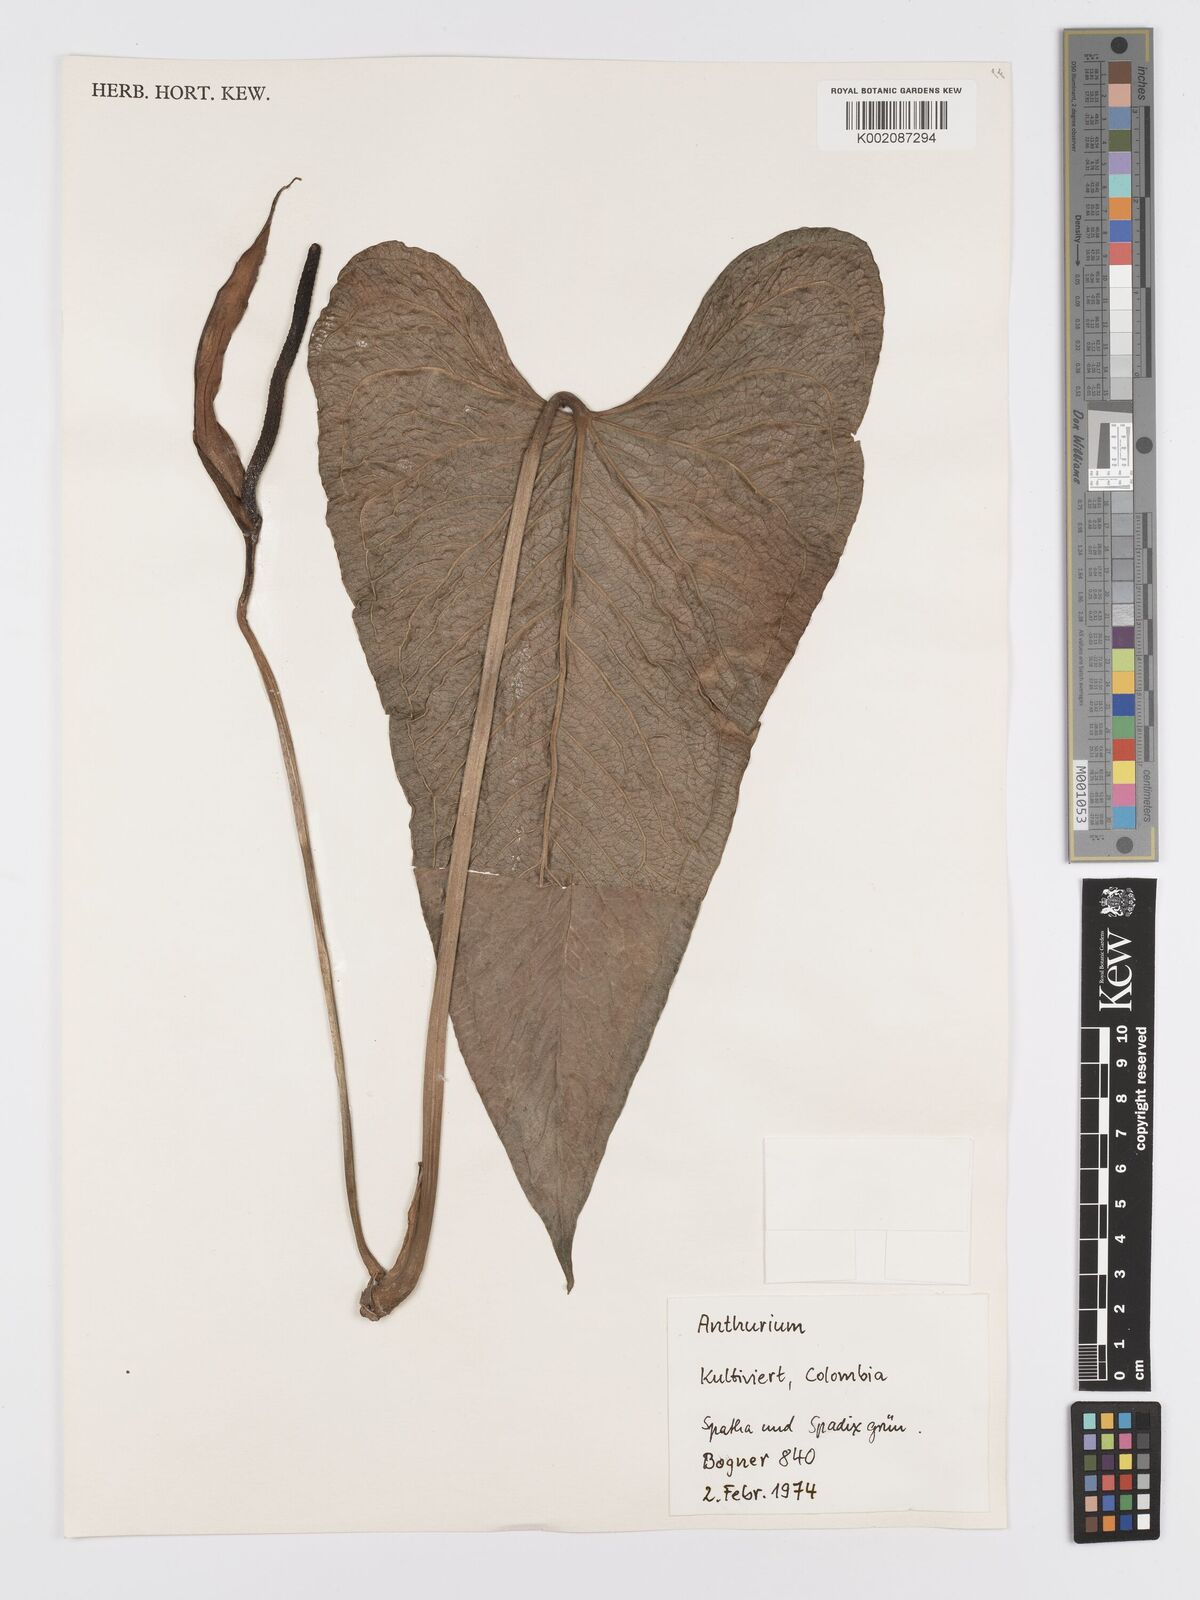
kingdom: Plantae
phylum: Tracheophyta
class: Liliopsida
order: Alismatales
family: Araceae
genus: Anthurium
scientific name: Anthurium
